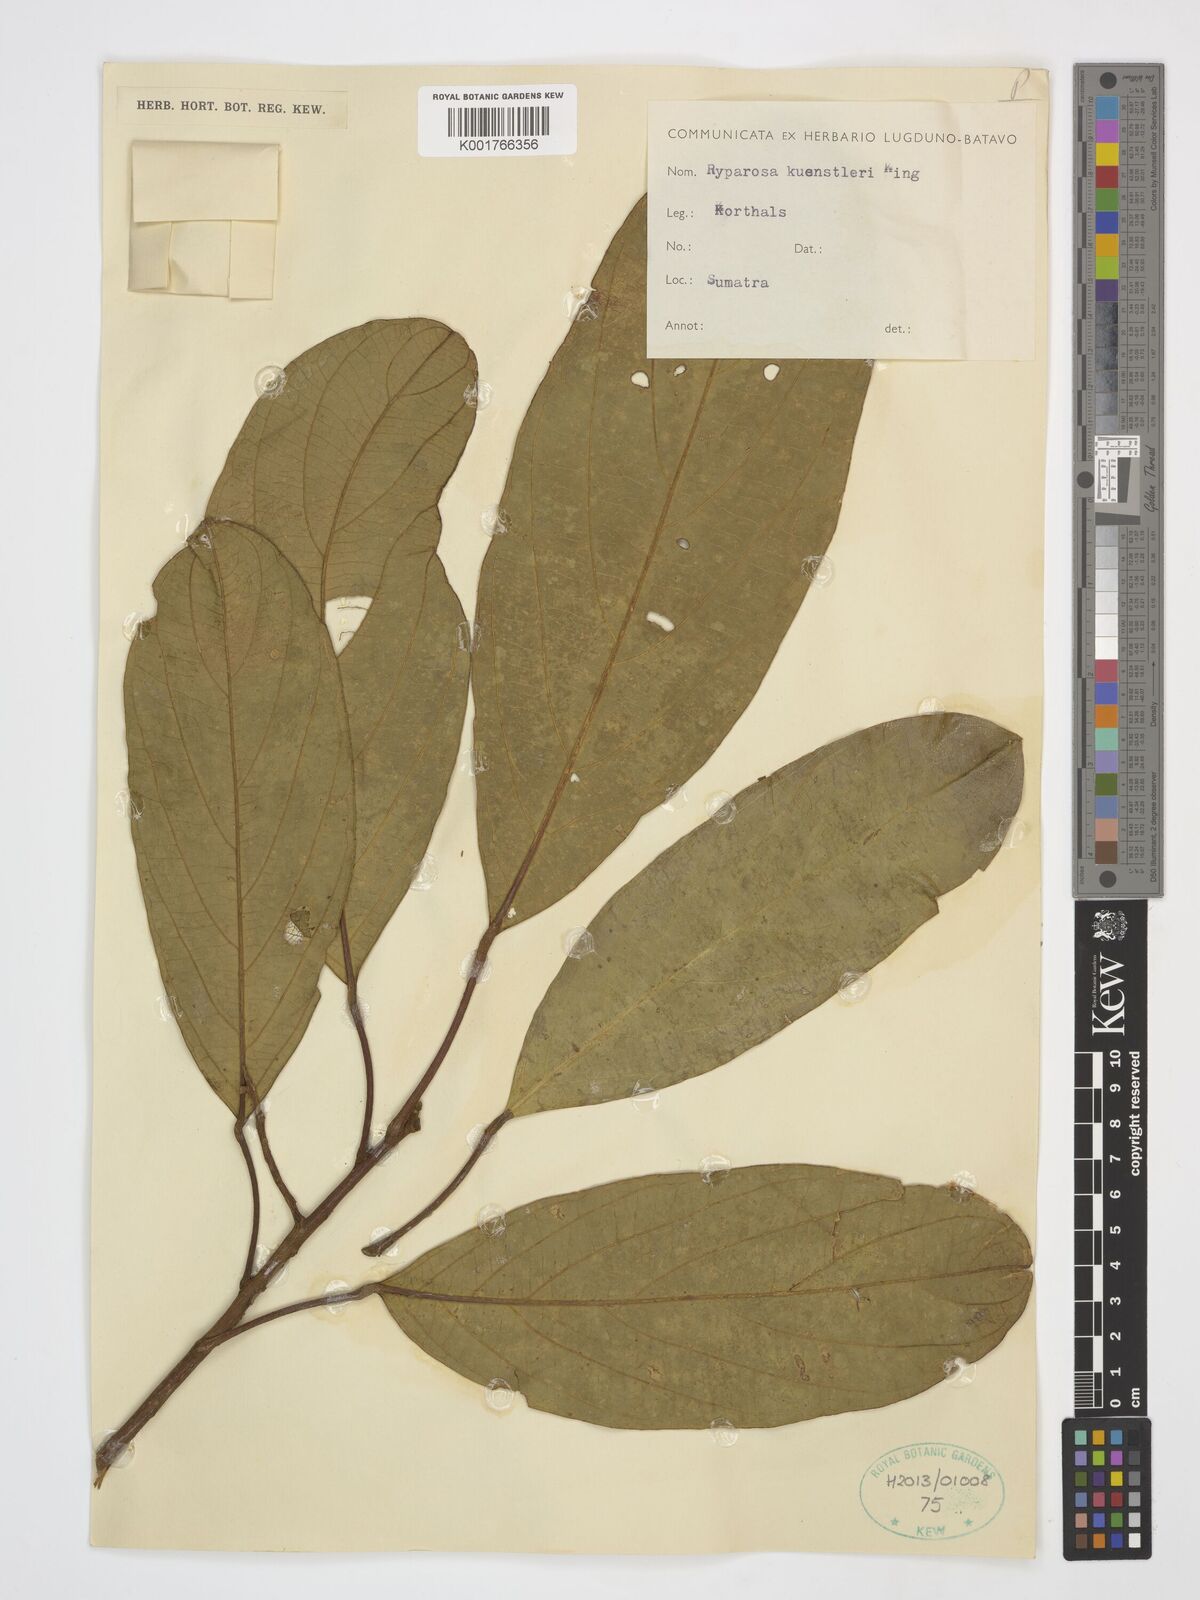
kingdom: Plantae
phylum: Tracheophyta
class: Magnoliopsida
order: Malpighiales
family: Achariaceae
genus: Ryparosa
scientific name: Ryparosa kunstleri
